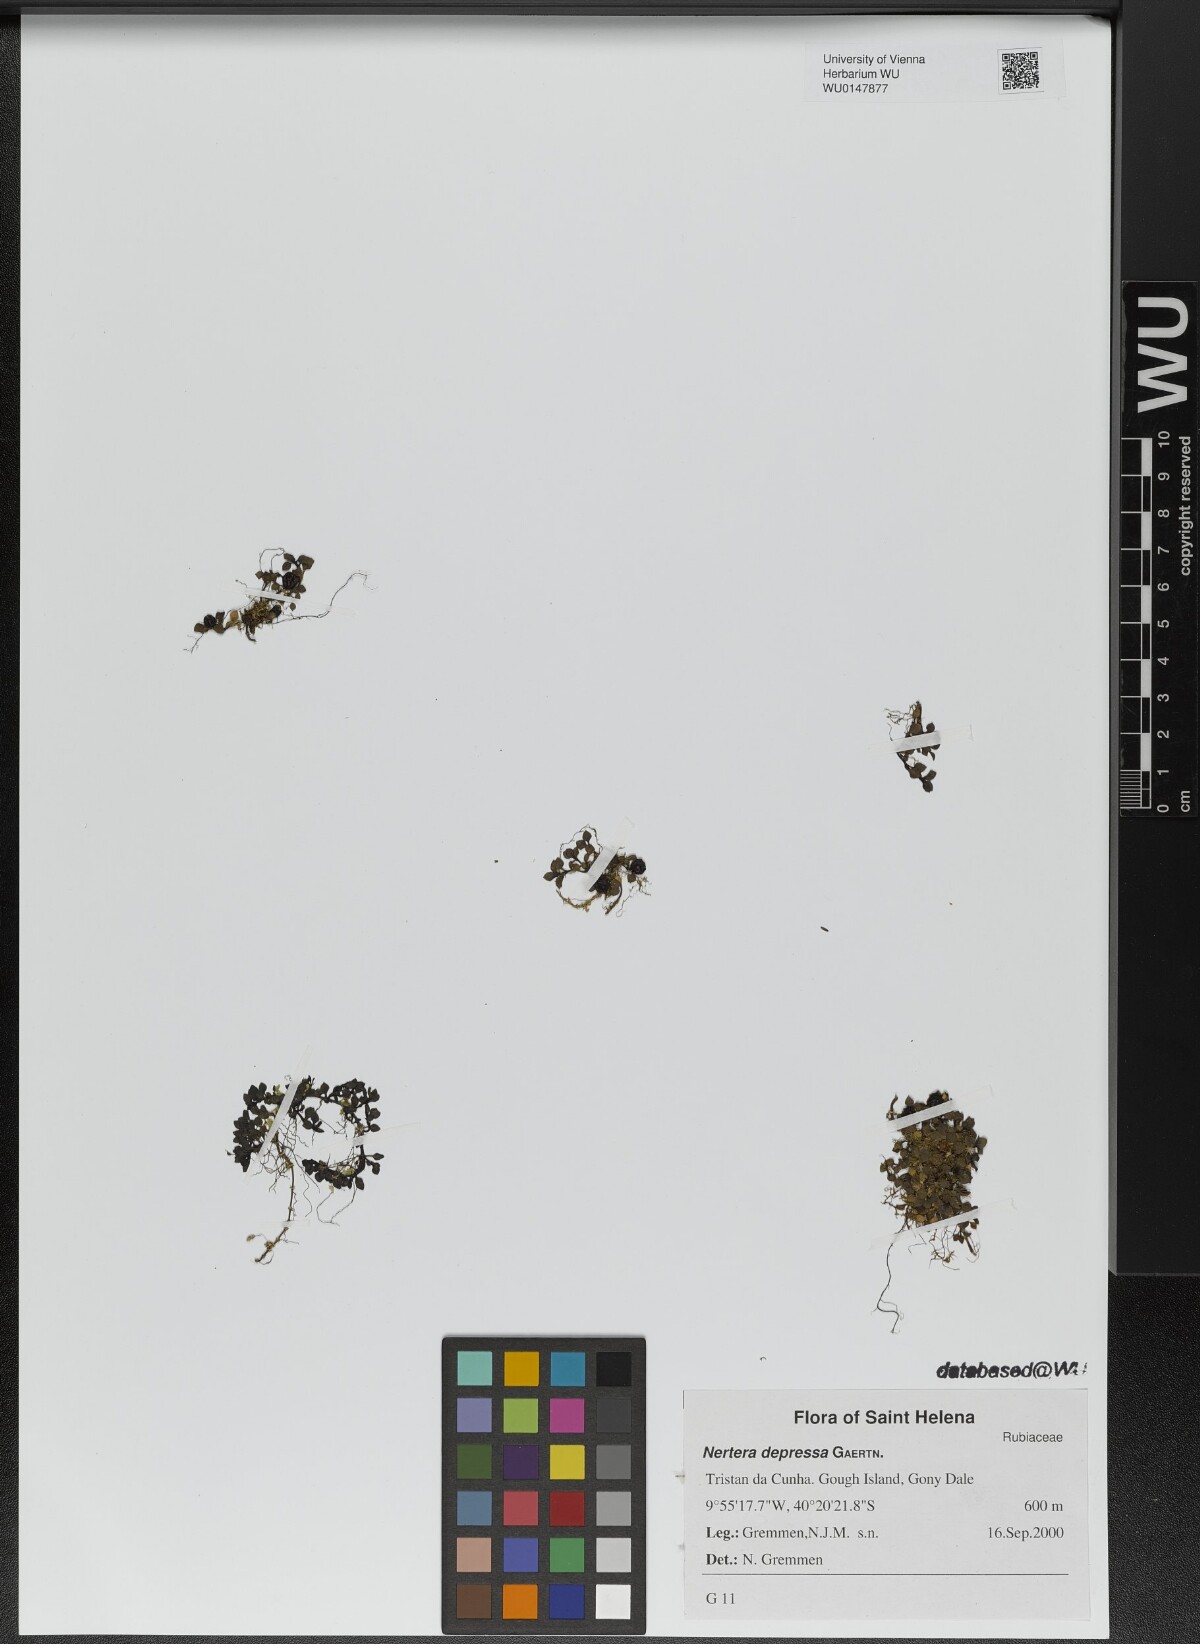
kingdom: Plantae
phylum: Tracheophyta
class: Magnoliopsida
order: Gentianales
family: Rubiaceae
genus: Nertera
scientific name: Nertera granadensis
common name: Beadplant
